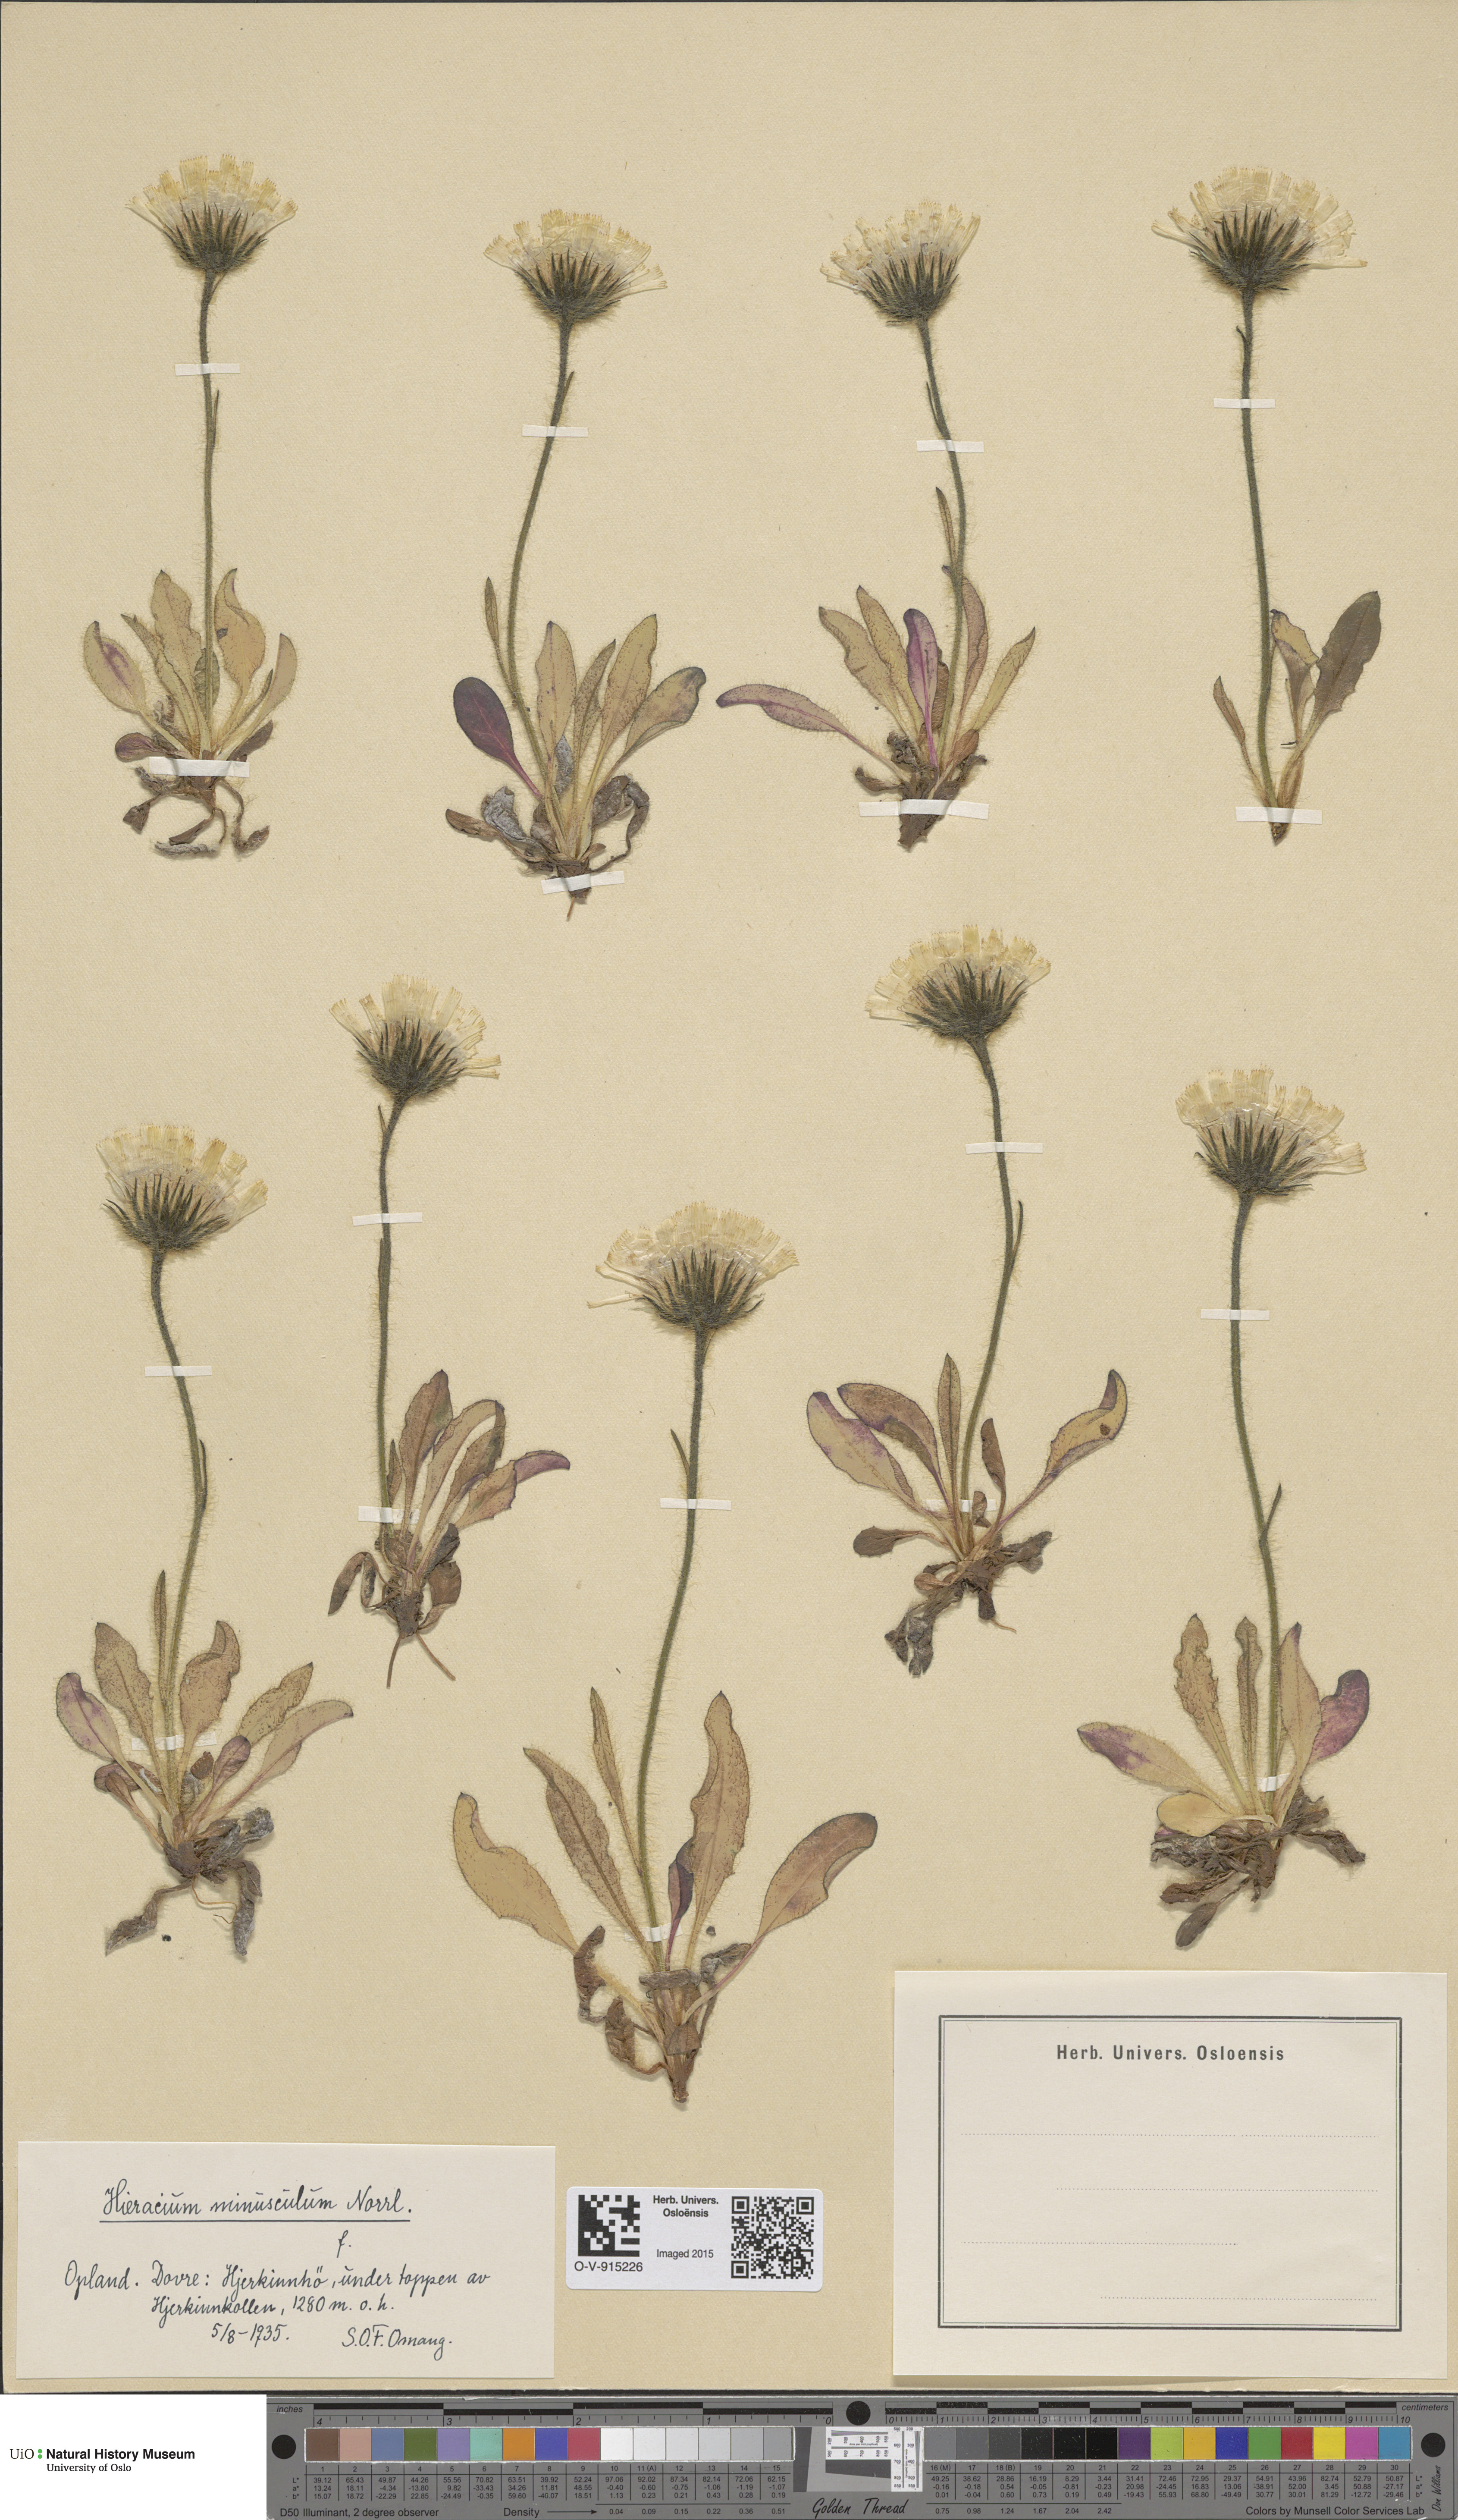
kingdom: Plantae
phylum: Tracheophyta
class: Magnoliopsida
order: Asterales
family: Asteraceae
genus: Hieracium
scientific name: Hieracium alpinum
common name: Alpine hawkweed
